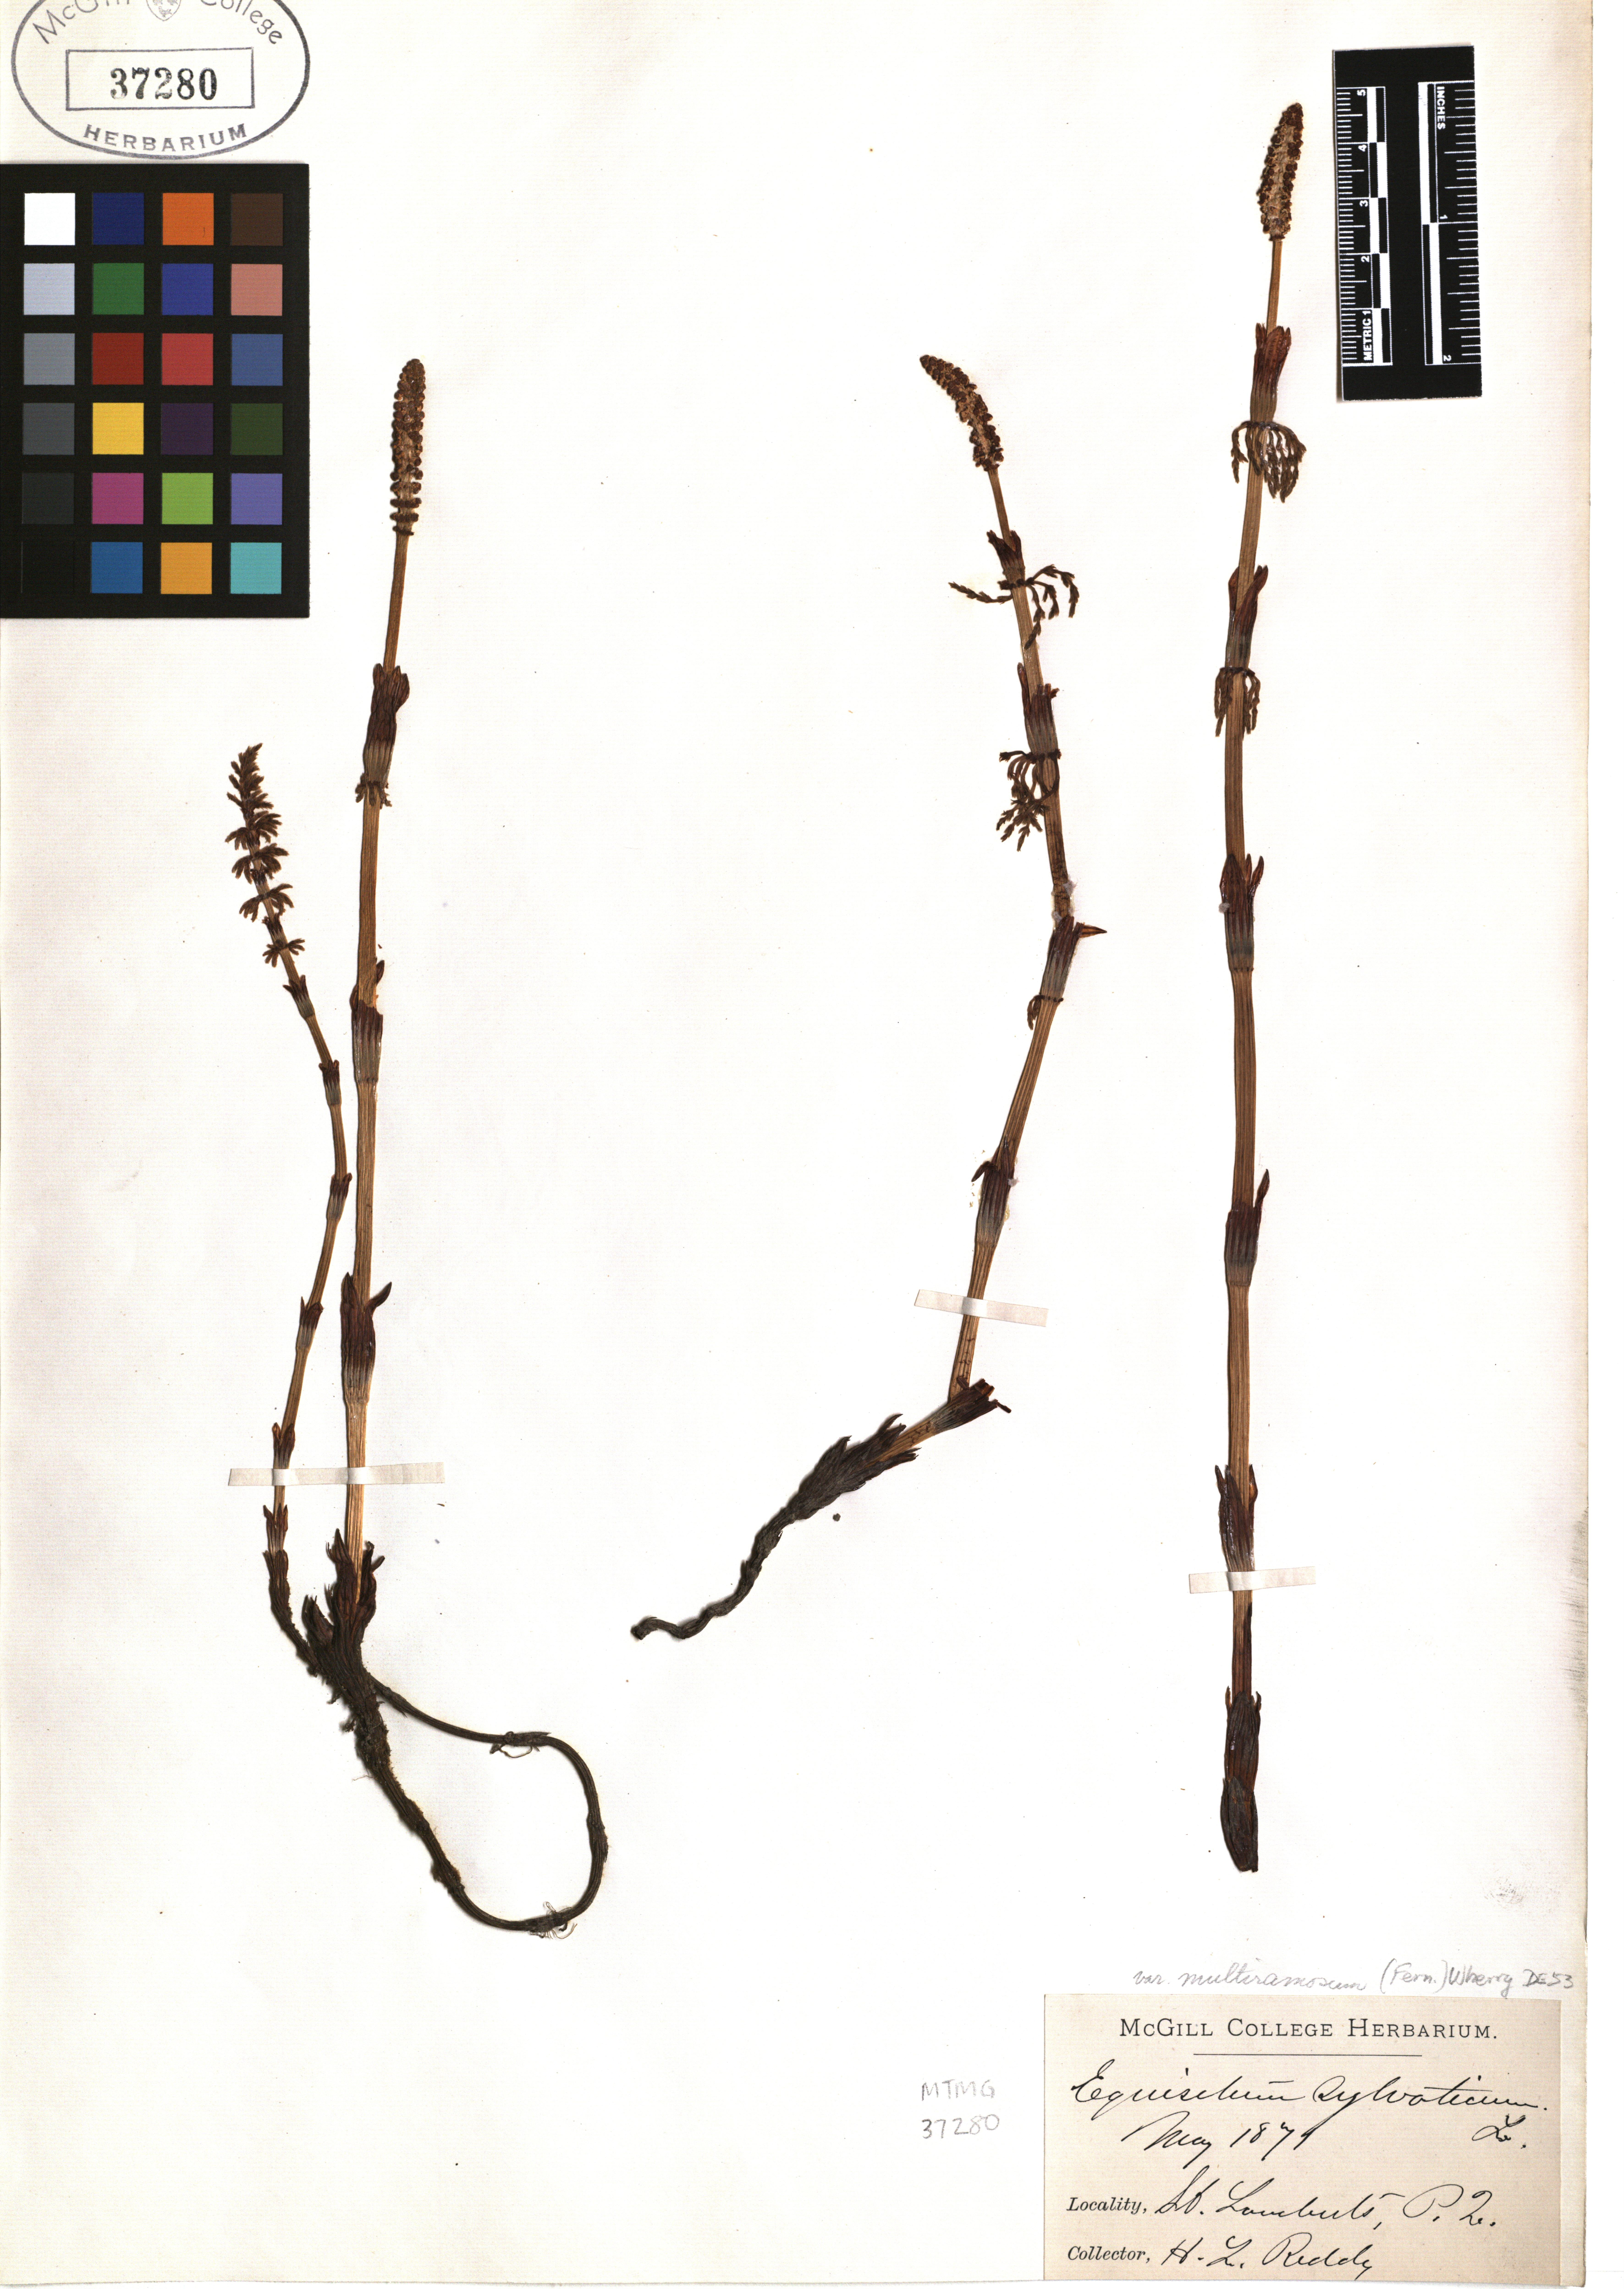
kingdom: Plantae
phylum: Tracheophyta
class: Polypodiopsida
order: Equisetales
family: Equisetaceae
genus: Equisetum
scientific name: Equisetum sylvaticum
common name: Wood horsetail
